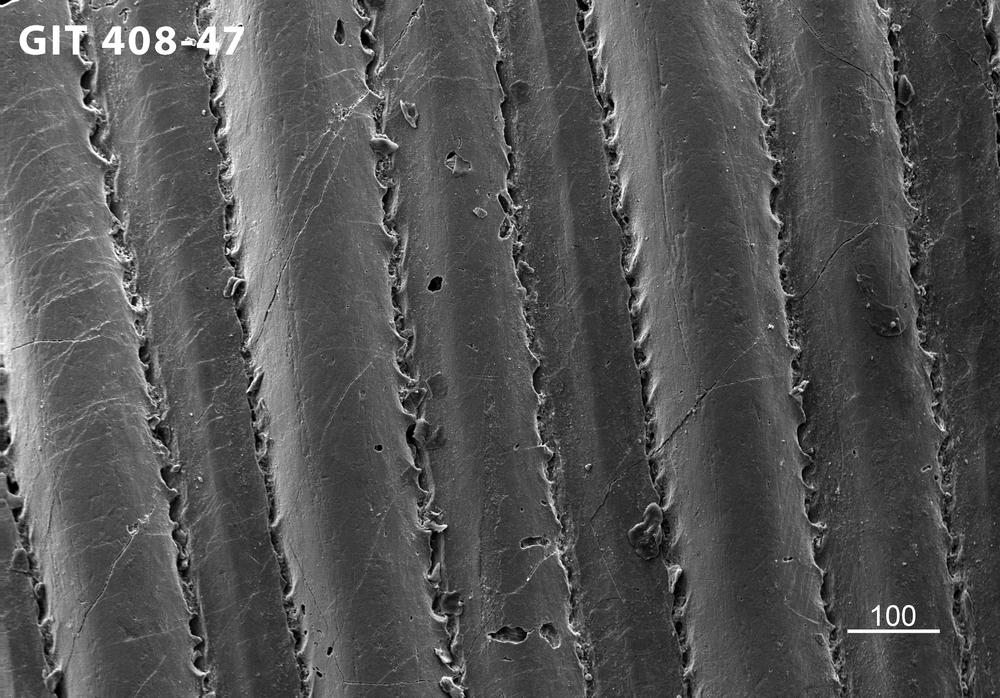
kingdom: Animalia
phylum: Chordata
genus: Archegonaspis
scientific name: Archegonaspis
